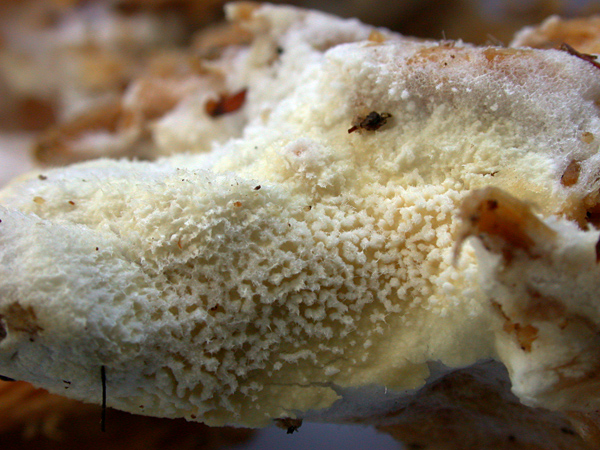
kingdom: Fungi
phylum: Basidiomycota
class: Agaricomycetes
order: Cantharellales
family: Hydnaceae
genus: Sistotrema
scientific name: Sistotrema raduloides
